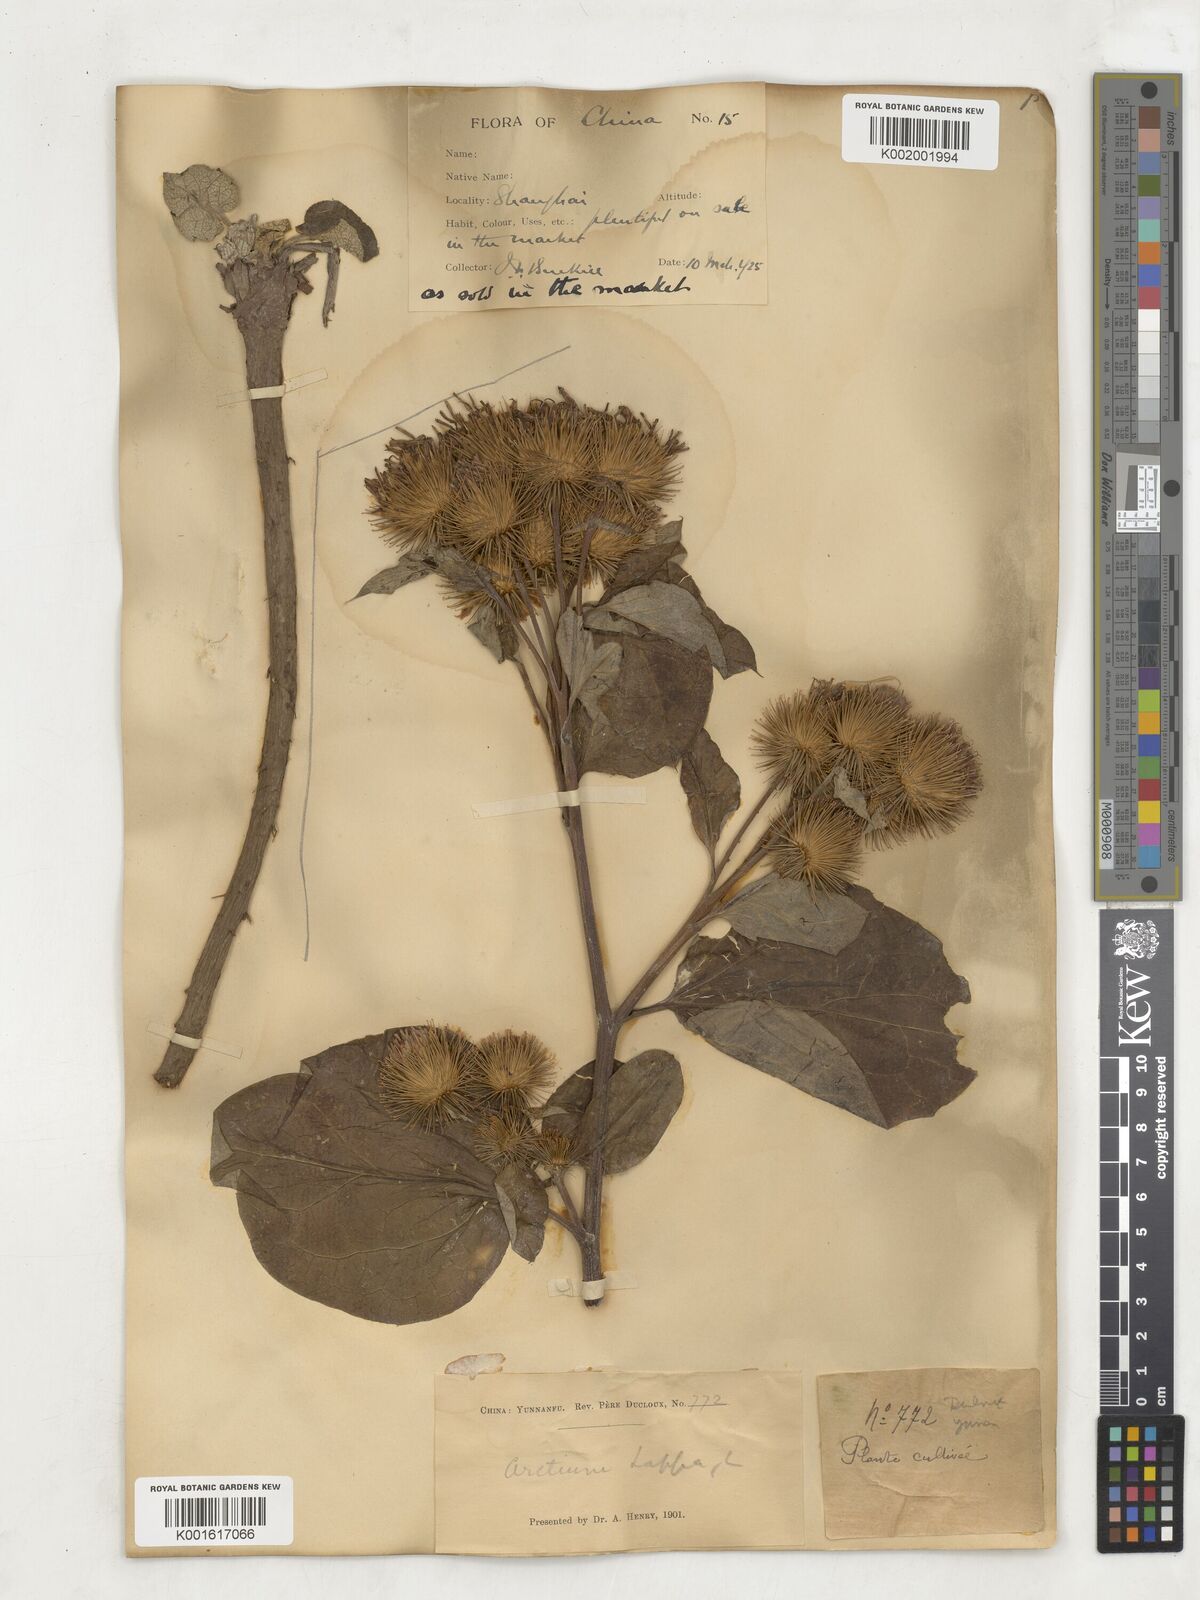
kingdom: Plantae
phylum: Tracheophyta
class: Magnoliopsida
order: Asterales
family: Asteraceae
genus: Arctium
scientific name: Arctium lappa
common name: Greater burdock
